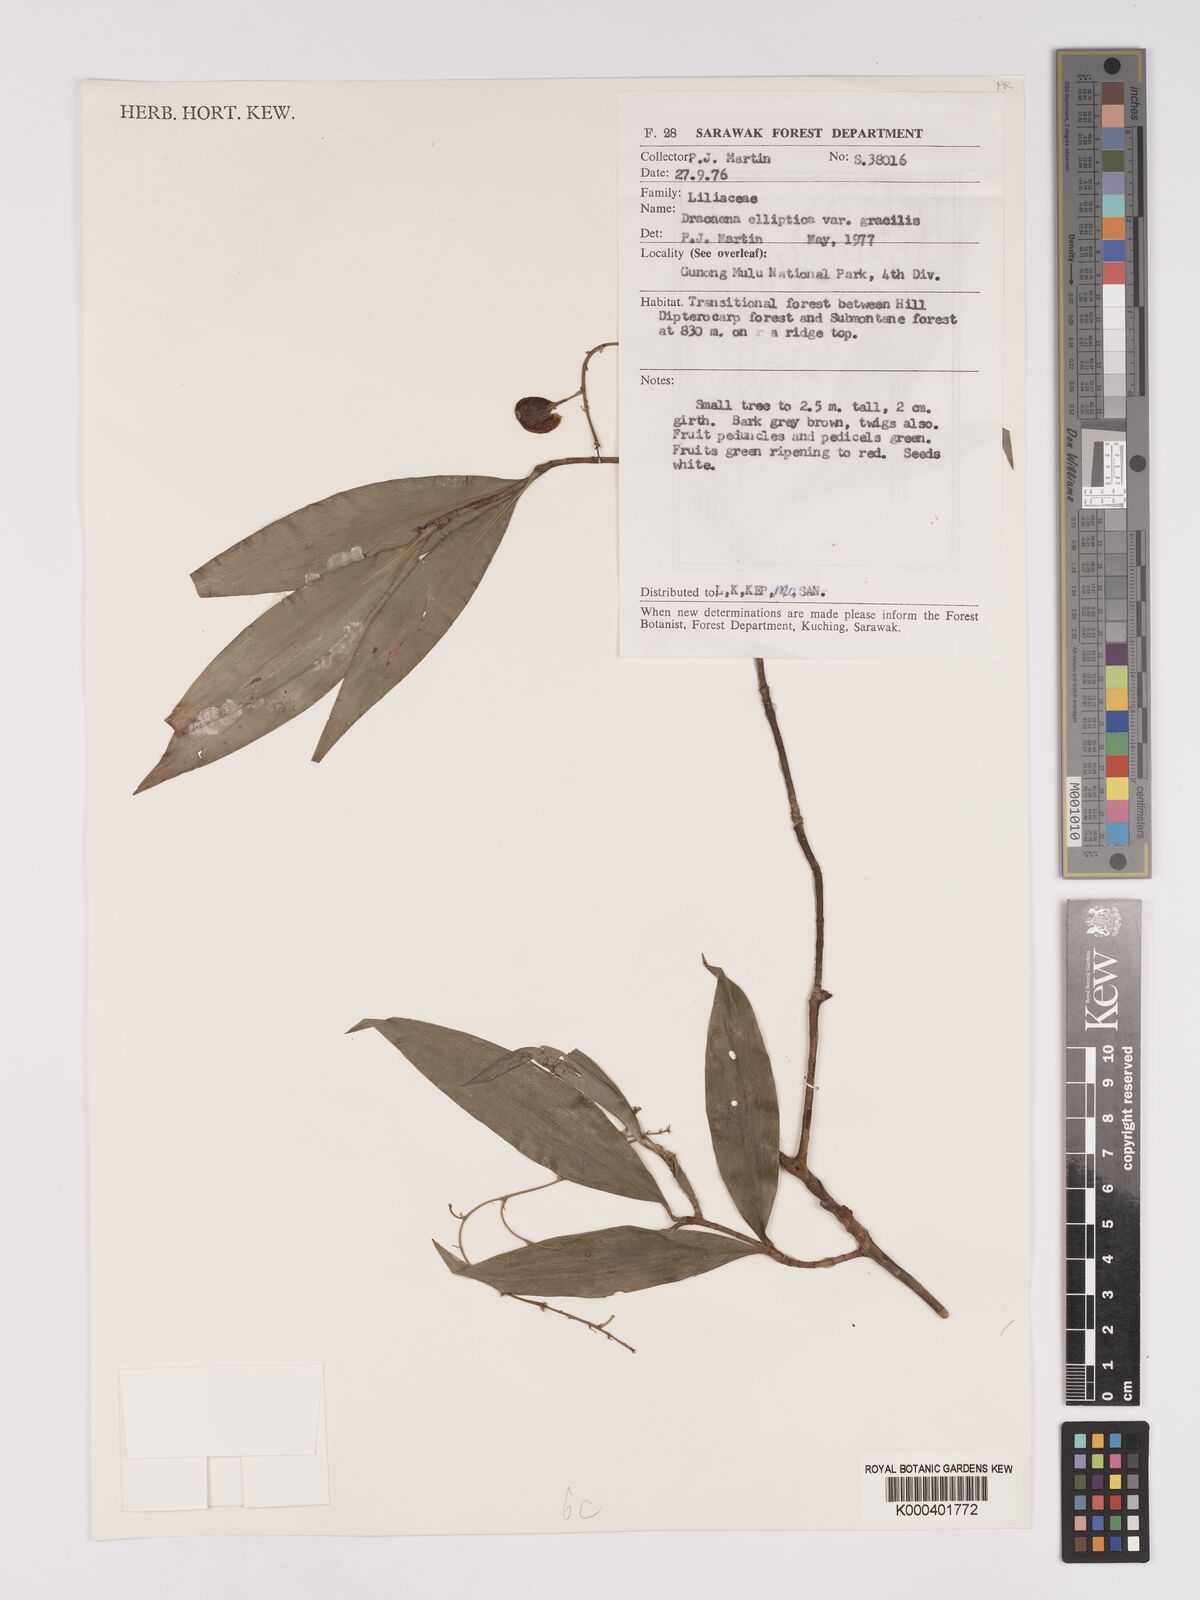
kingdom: Plantae
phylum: Tracheophyta
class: Liliopsida
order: Asparagales
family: Asparagaceae
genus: Dracaena
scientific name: Dracaena elliptica
